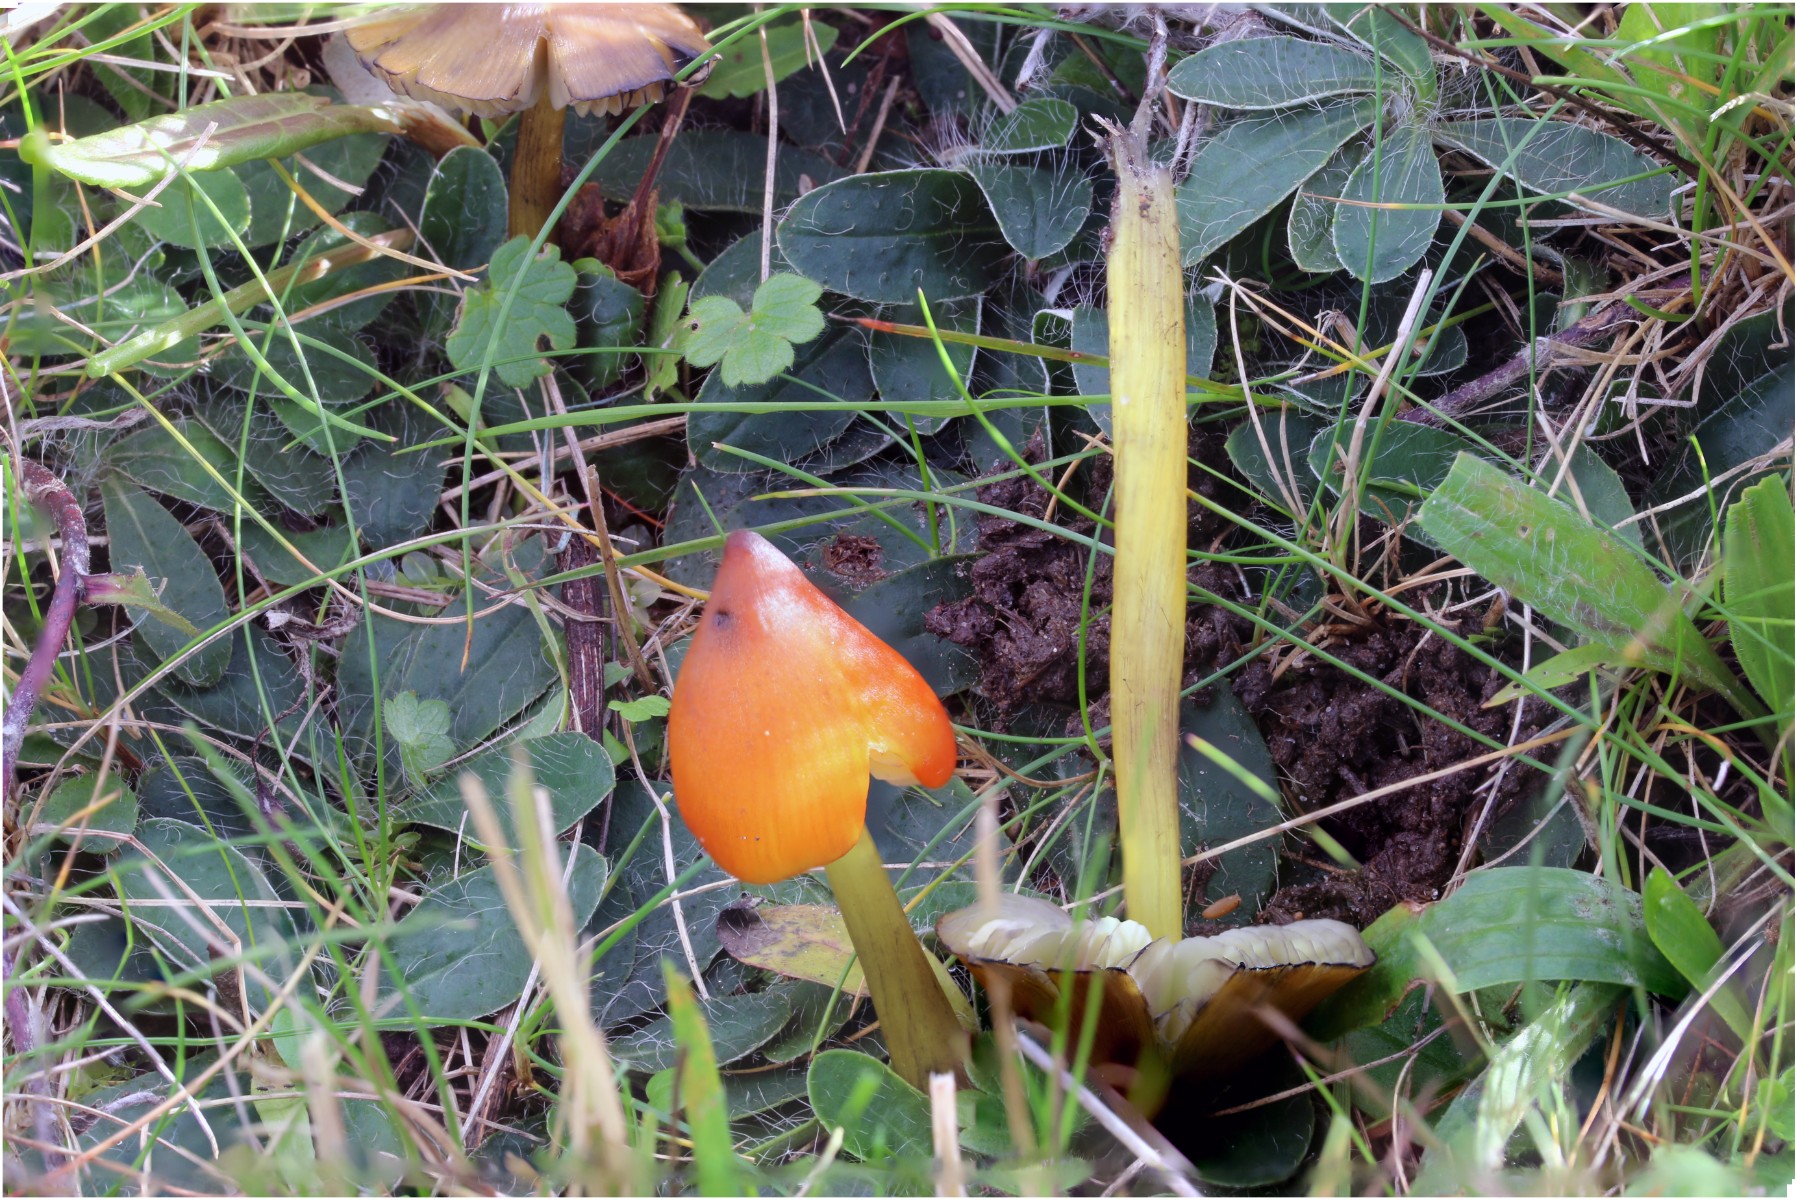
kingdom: Fungi
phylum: Basidiomycota
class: Agaricomycetes
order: Agaricales
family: Hygrophoraceae
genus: Hygrocybe
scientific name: Hygrocybe conica
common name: kegle-vokshat
